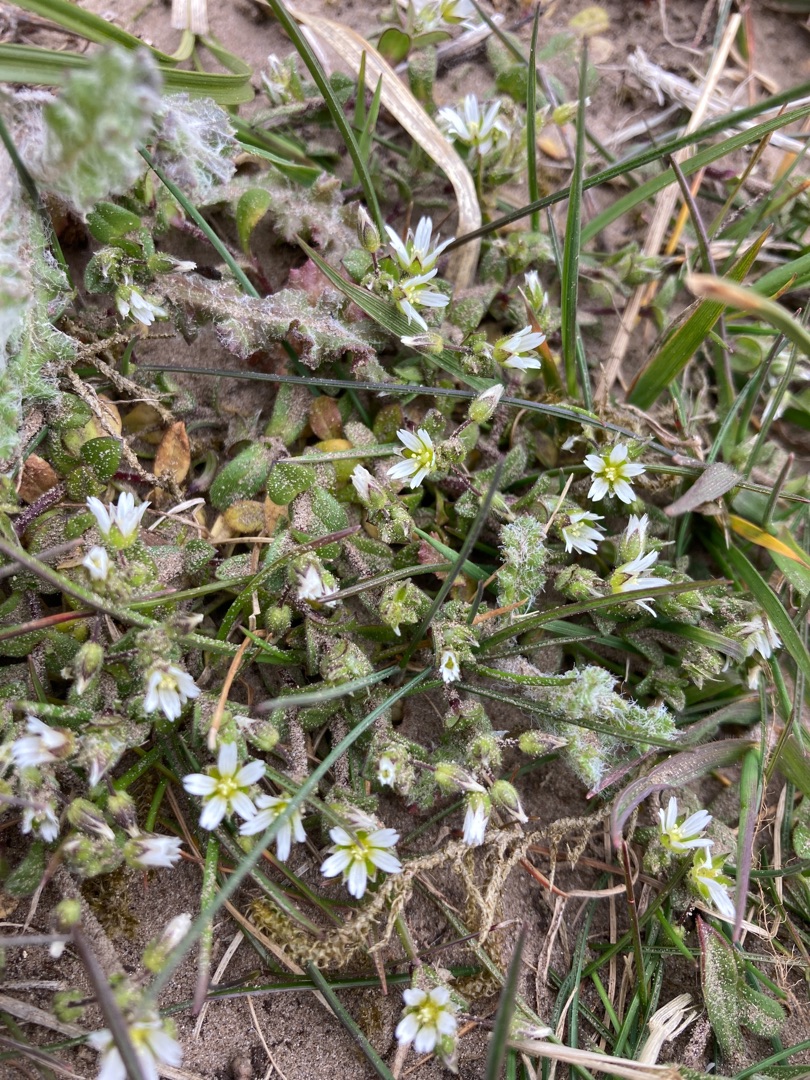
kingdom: Plantae
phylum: Tracheophyta
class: Magnoliopsida
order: Caryophyllales
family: Caryophyllaceae
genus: Cerastium
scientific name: Cerastium semidecandrum
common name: Femhannet hønsetarm
